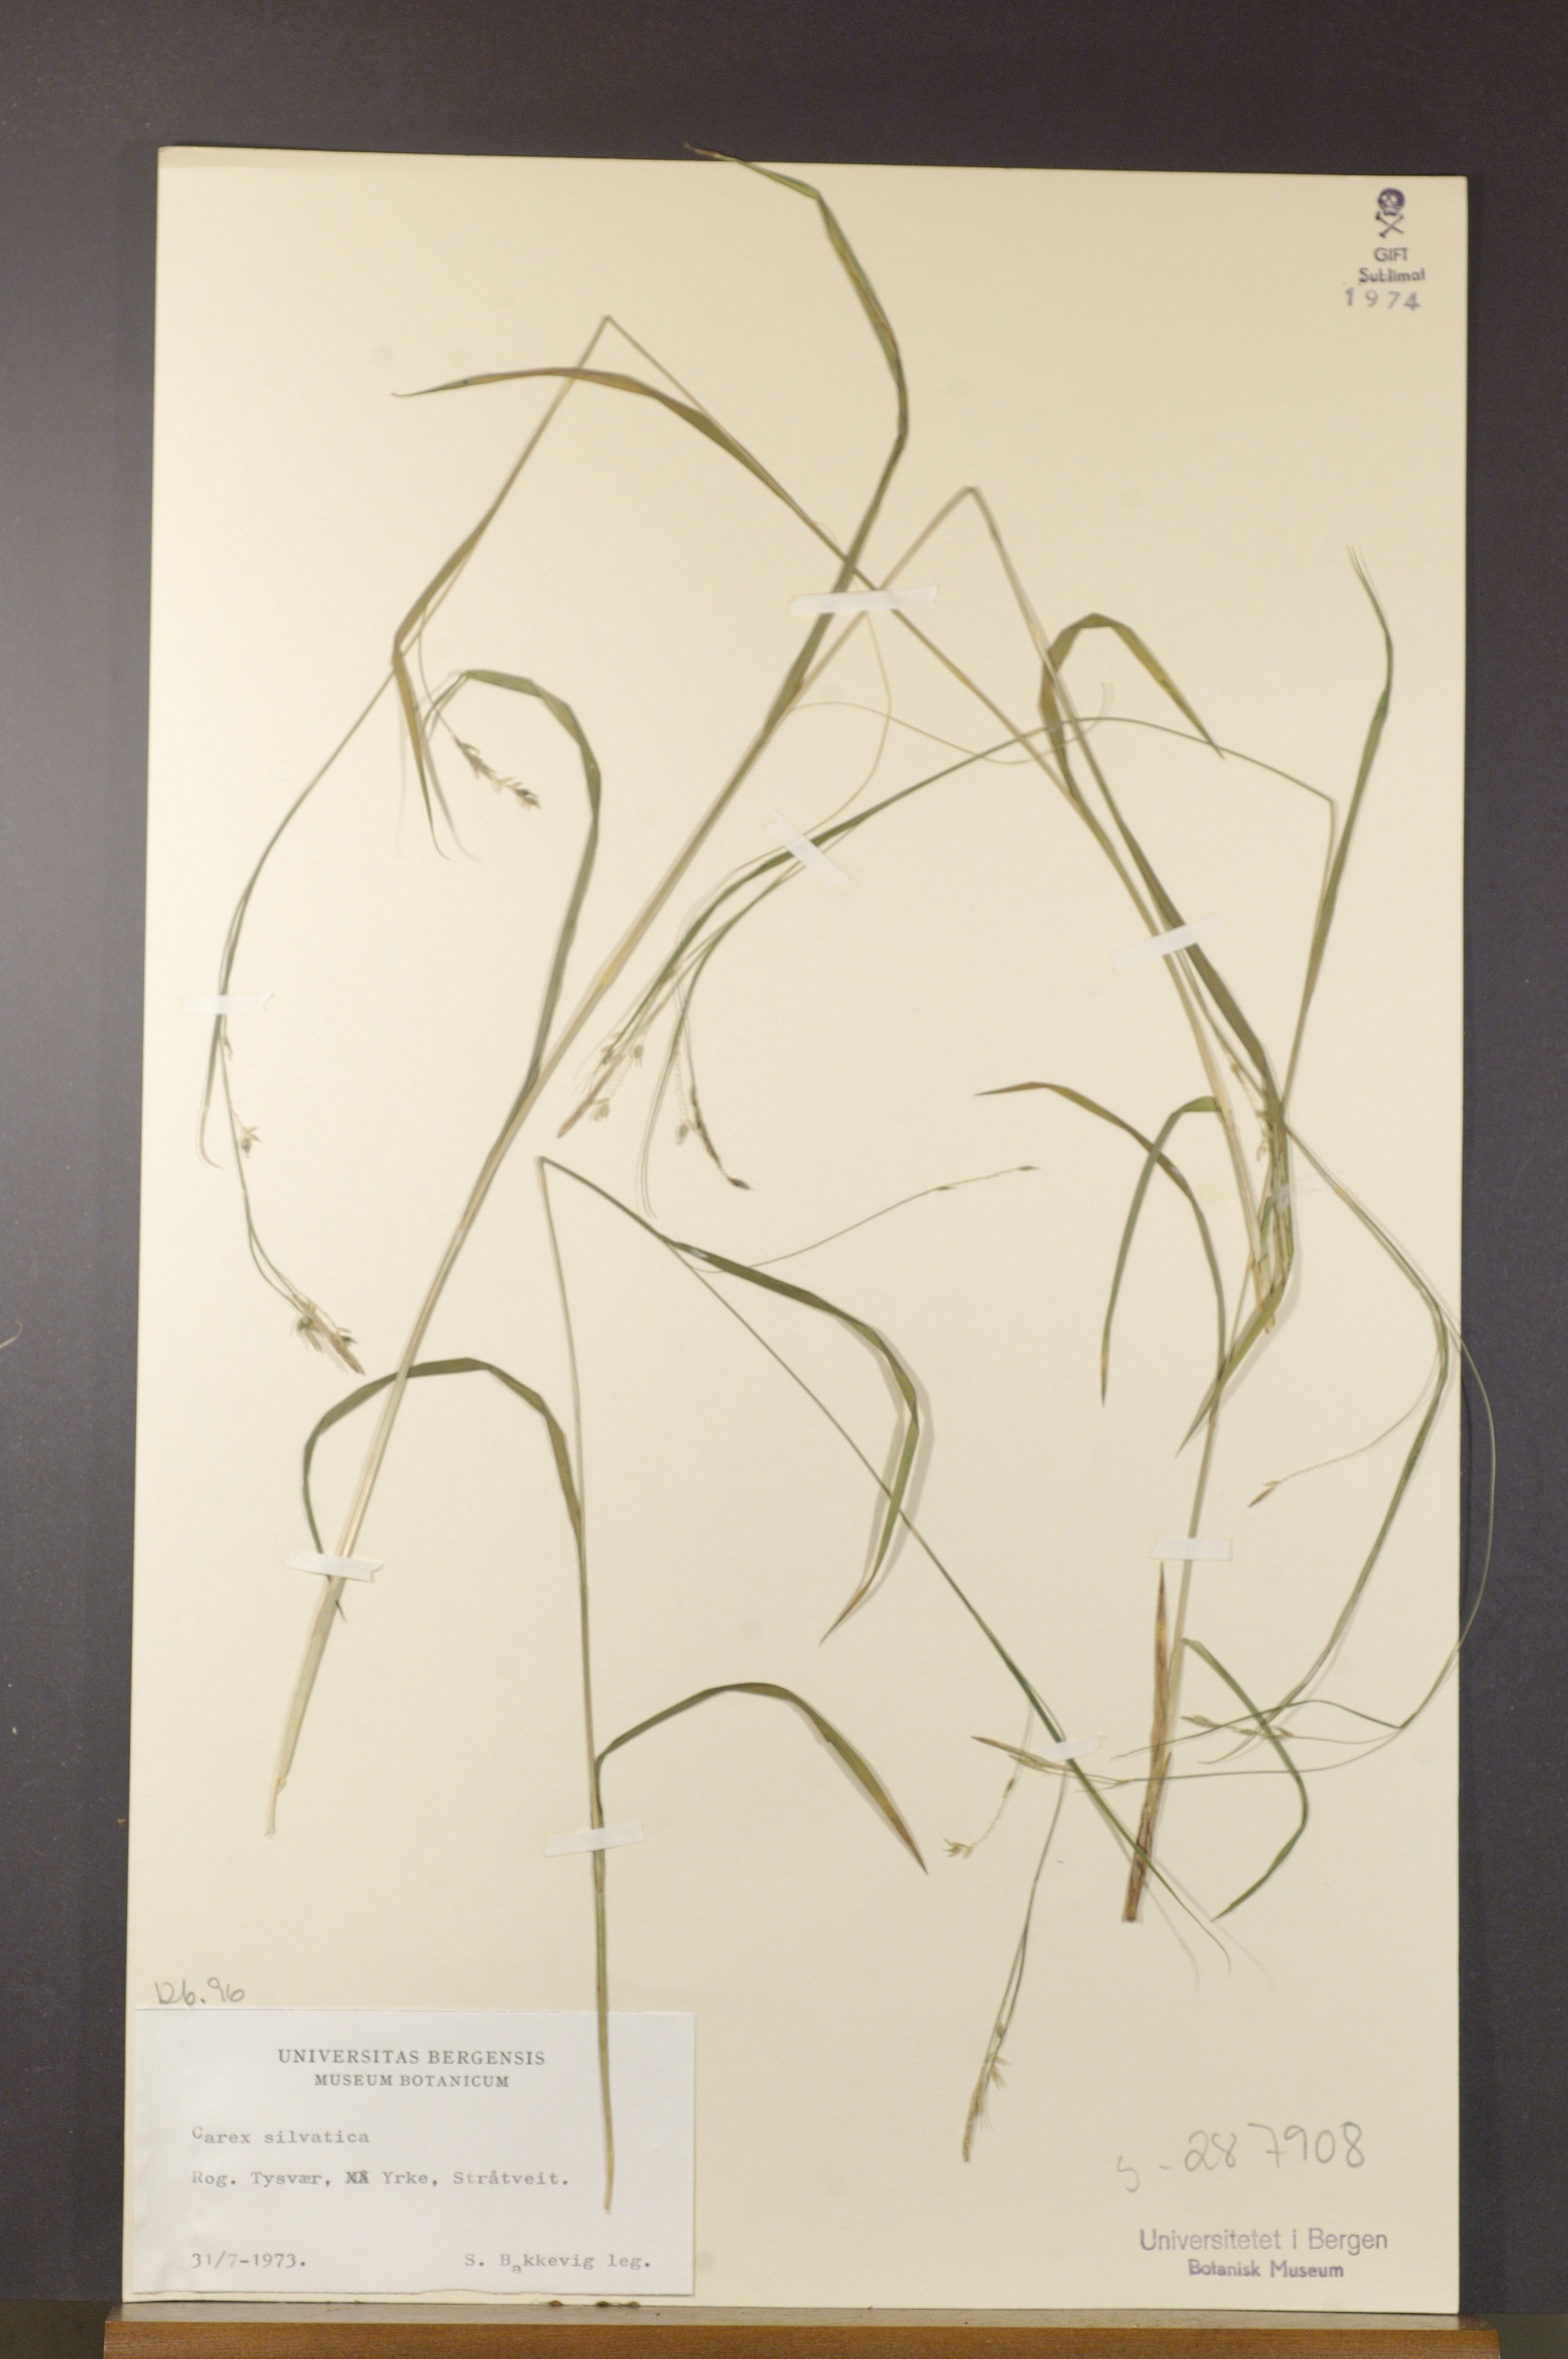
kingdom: Plantae
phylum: Tracheophyta
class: Liliopsida
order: Poales
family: Cyperaceae
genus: Carex
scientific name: Carex sylvatica
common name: Wood-sedge
